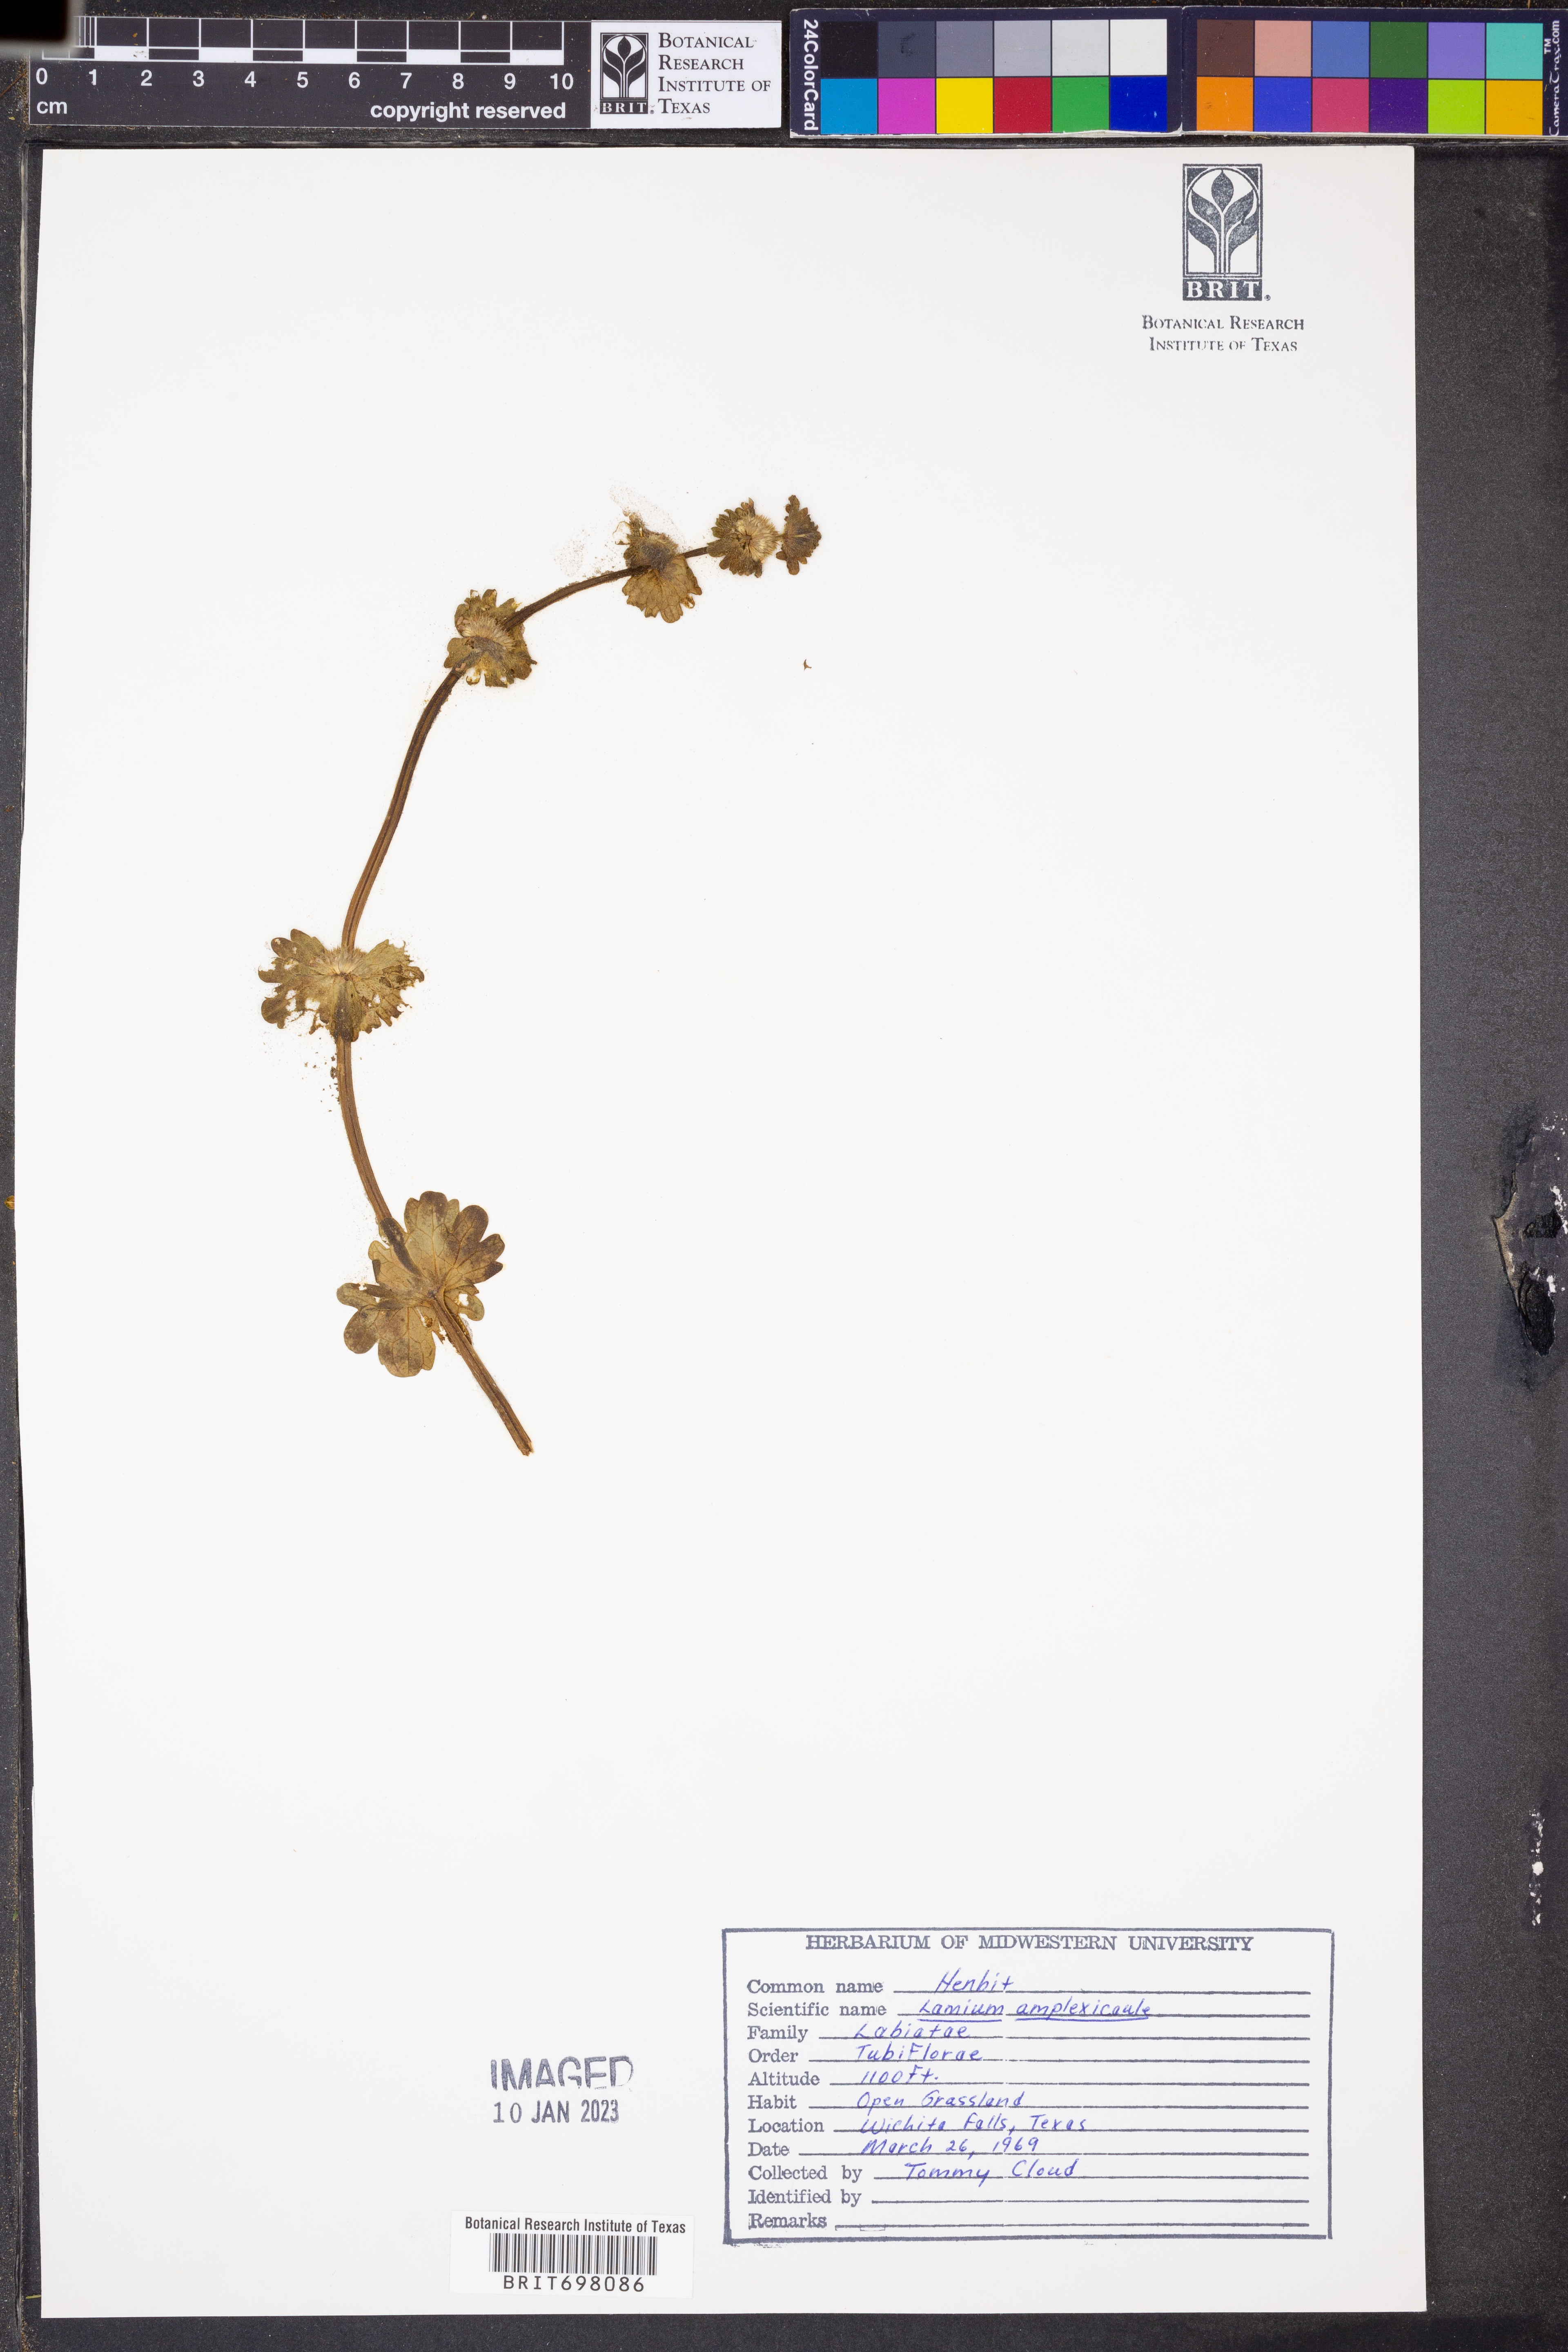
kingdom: Plantae
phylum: Tracheophyta
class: Magnoliopsida
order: Lamiales
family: Lamiaceae
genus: Lamium
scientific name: Lamium amplexicaule
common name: Henbit dead-nettle
